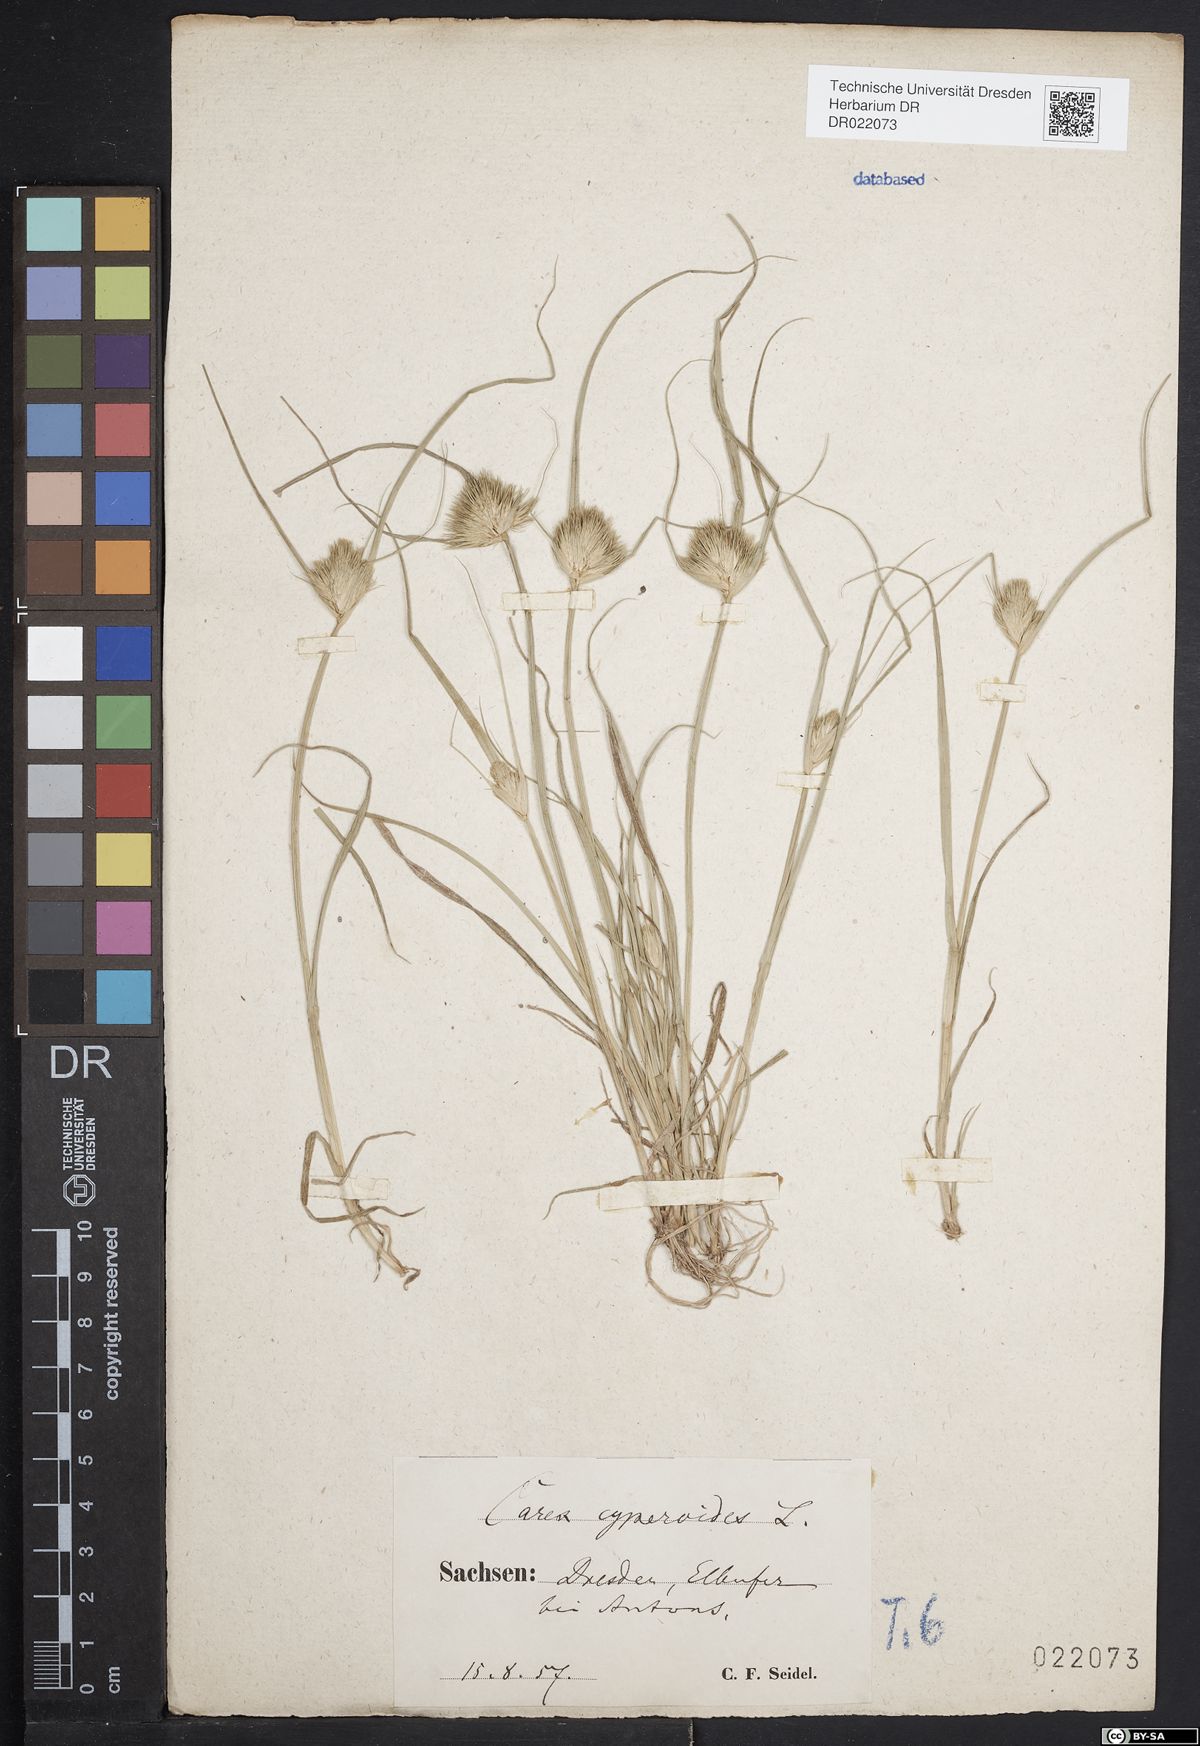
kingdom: Plantae
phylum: Tracheophyta
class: Liliopsida
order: Poales
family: Cyperaceae
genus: Carex
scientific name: Carex bohemica
